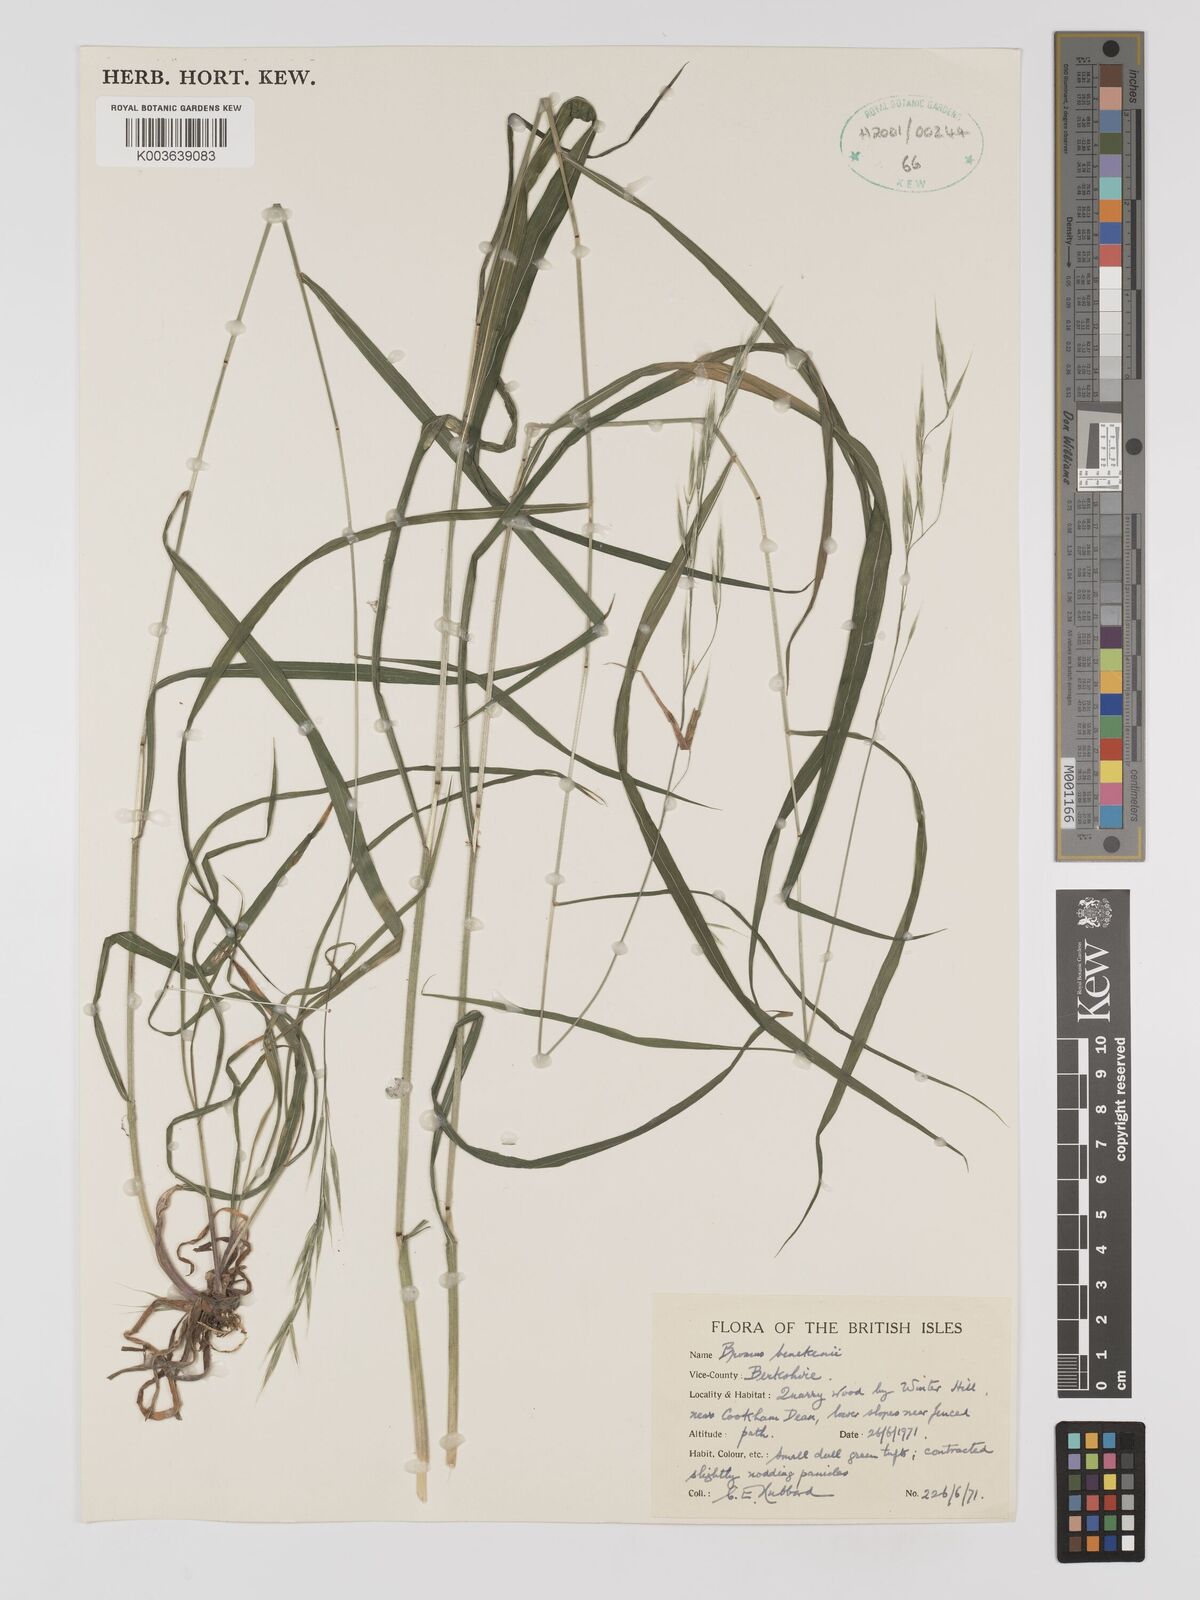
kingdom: Plantae
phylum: Tracheophyta
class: Liliopsida
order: Poales
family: Poaceae
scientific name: Poaceae
